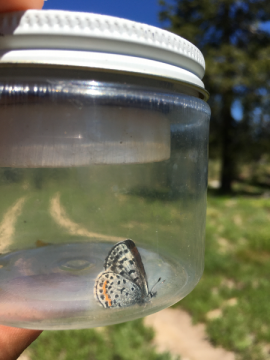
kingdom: Animalia
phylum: Arthropoda
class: Insecta
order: Lepidoptera
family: Lycaenidae
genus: Euphilotes
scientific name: Euphilotes battoides
